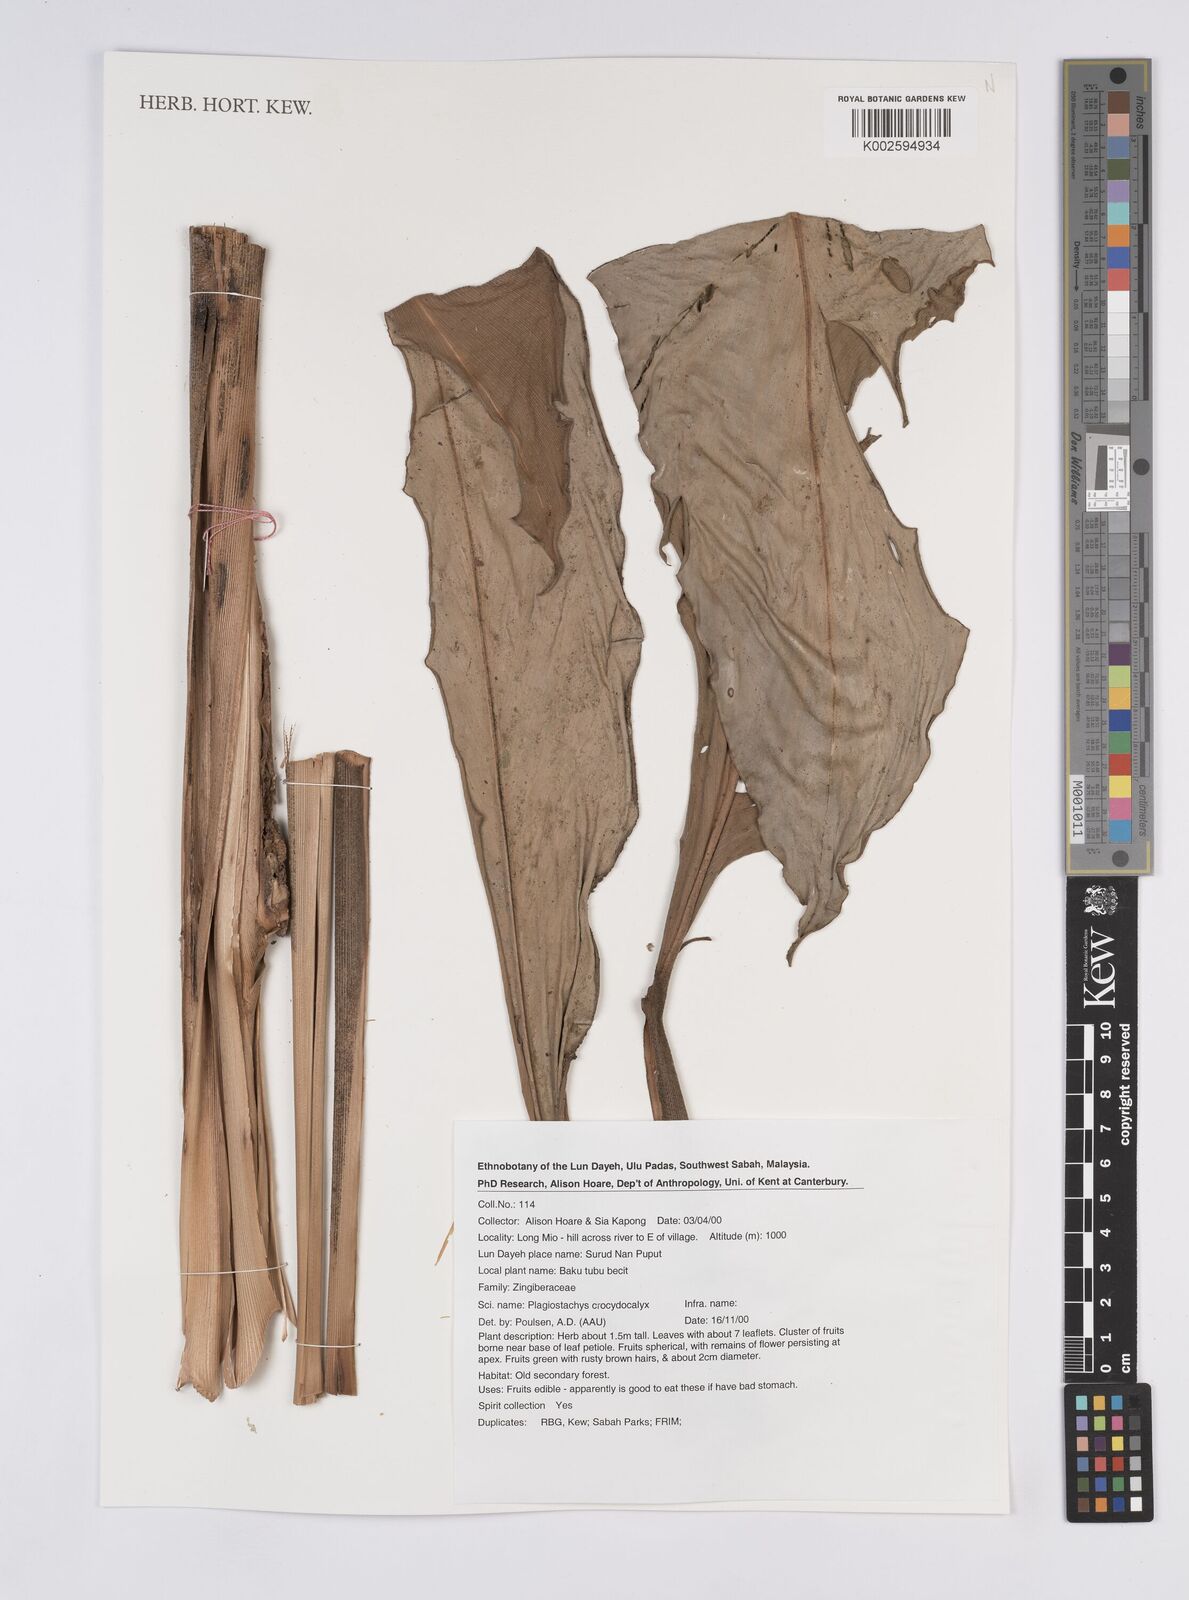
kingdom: Plantae
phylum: Tracheophyta
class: Liliopsida
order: Zingiberales
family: Zingiberaceae
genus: Plagiostachys
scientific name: Plagiostachys crocydocalyx
